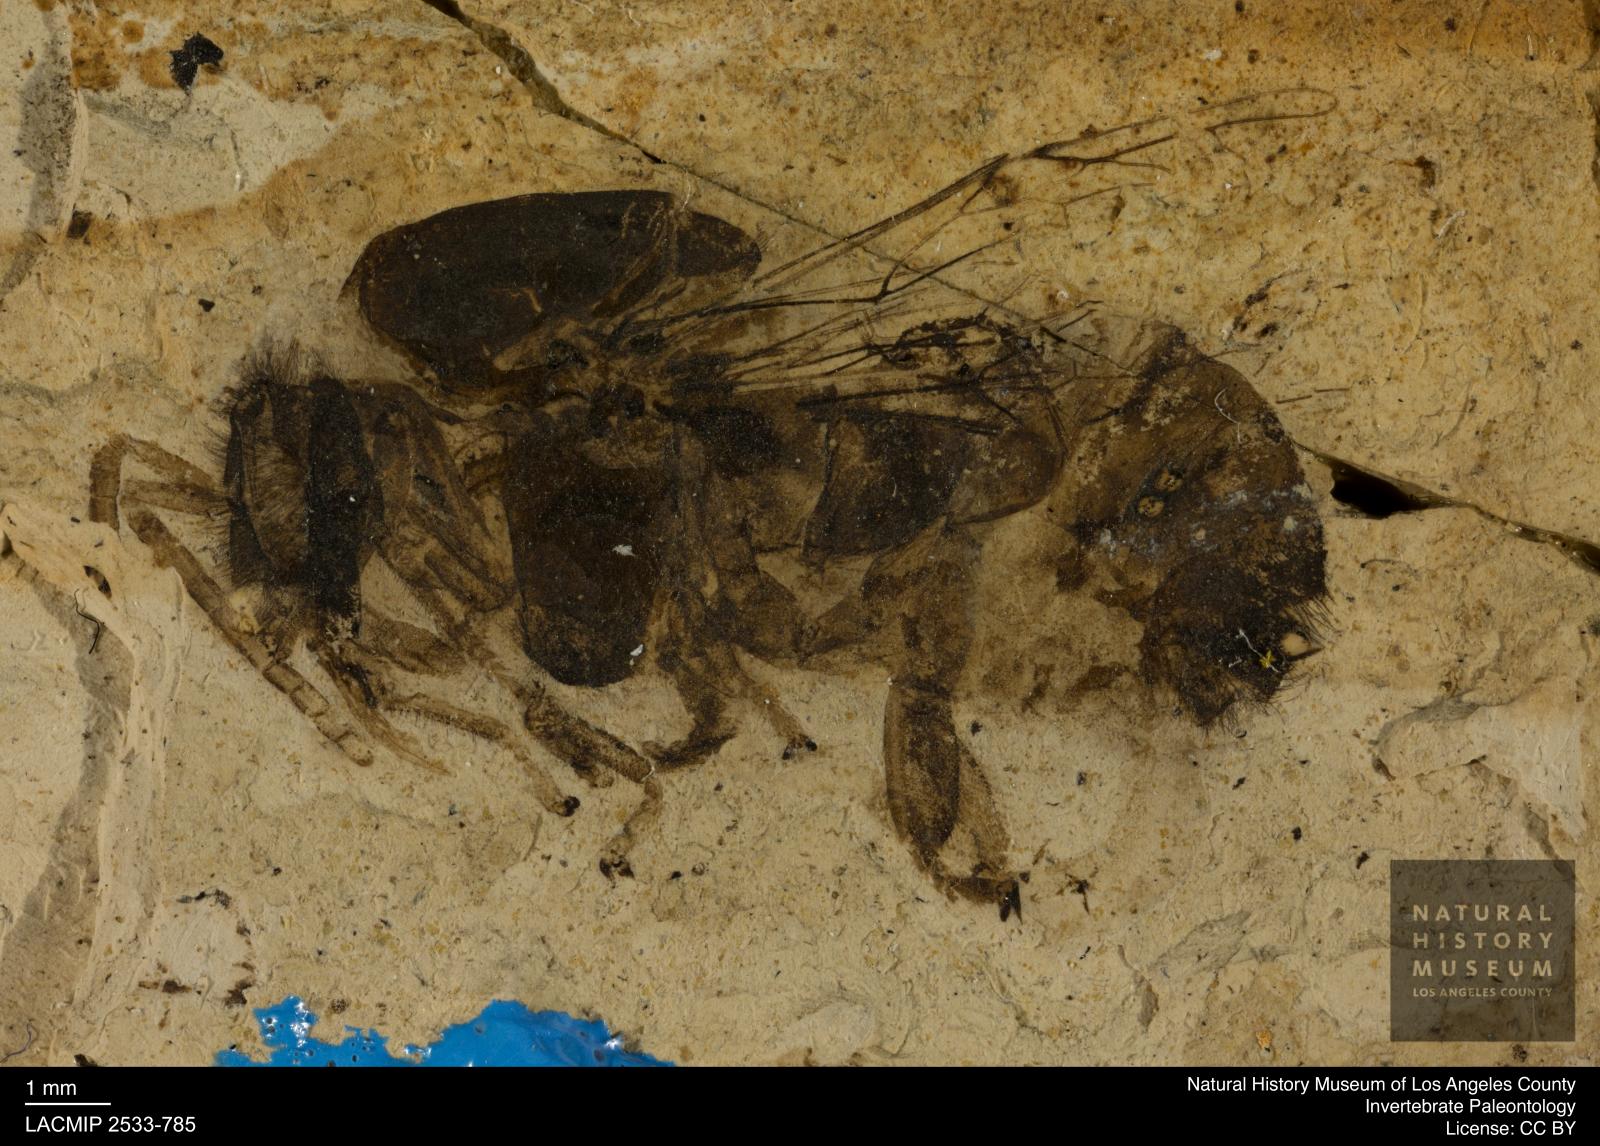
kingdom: Animalia
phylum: Arthropoda
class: Insecta
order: Hymenoptera
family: Apidae
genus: Apis
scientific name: Apis henshawi
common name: Henshaw's honey bee
